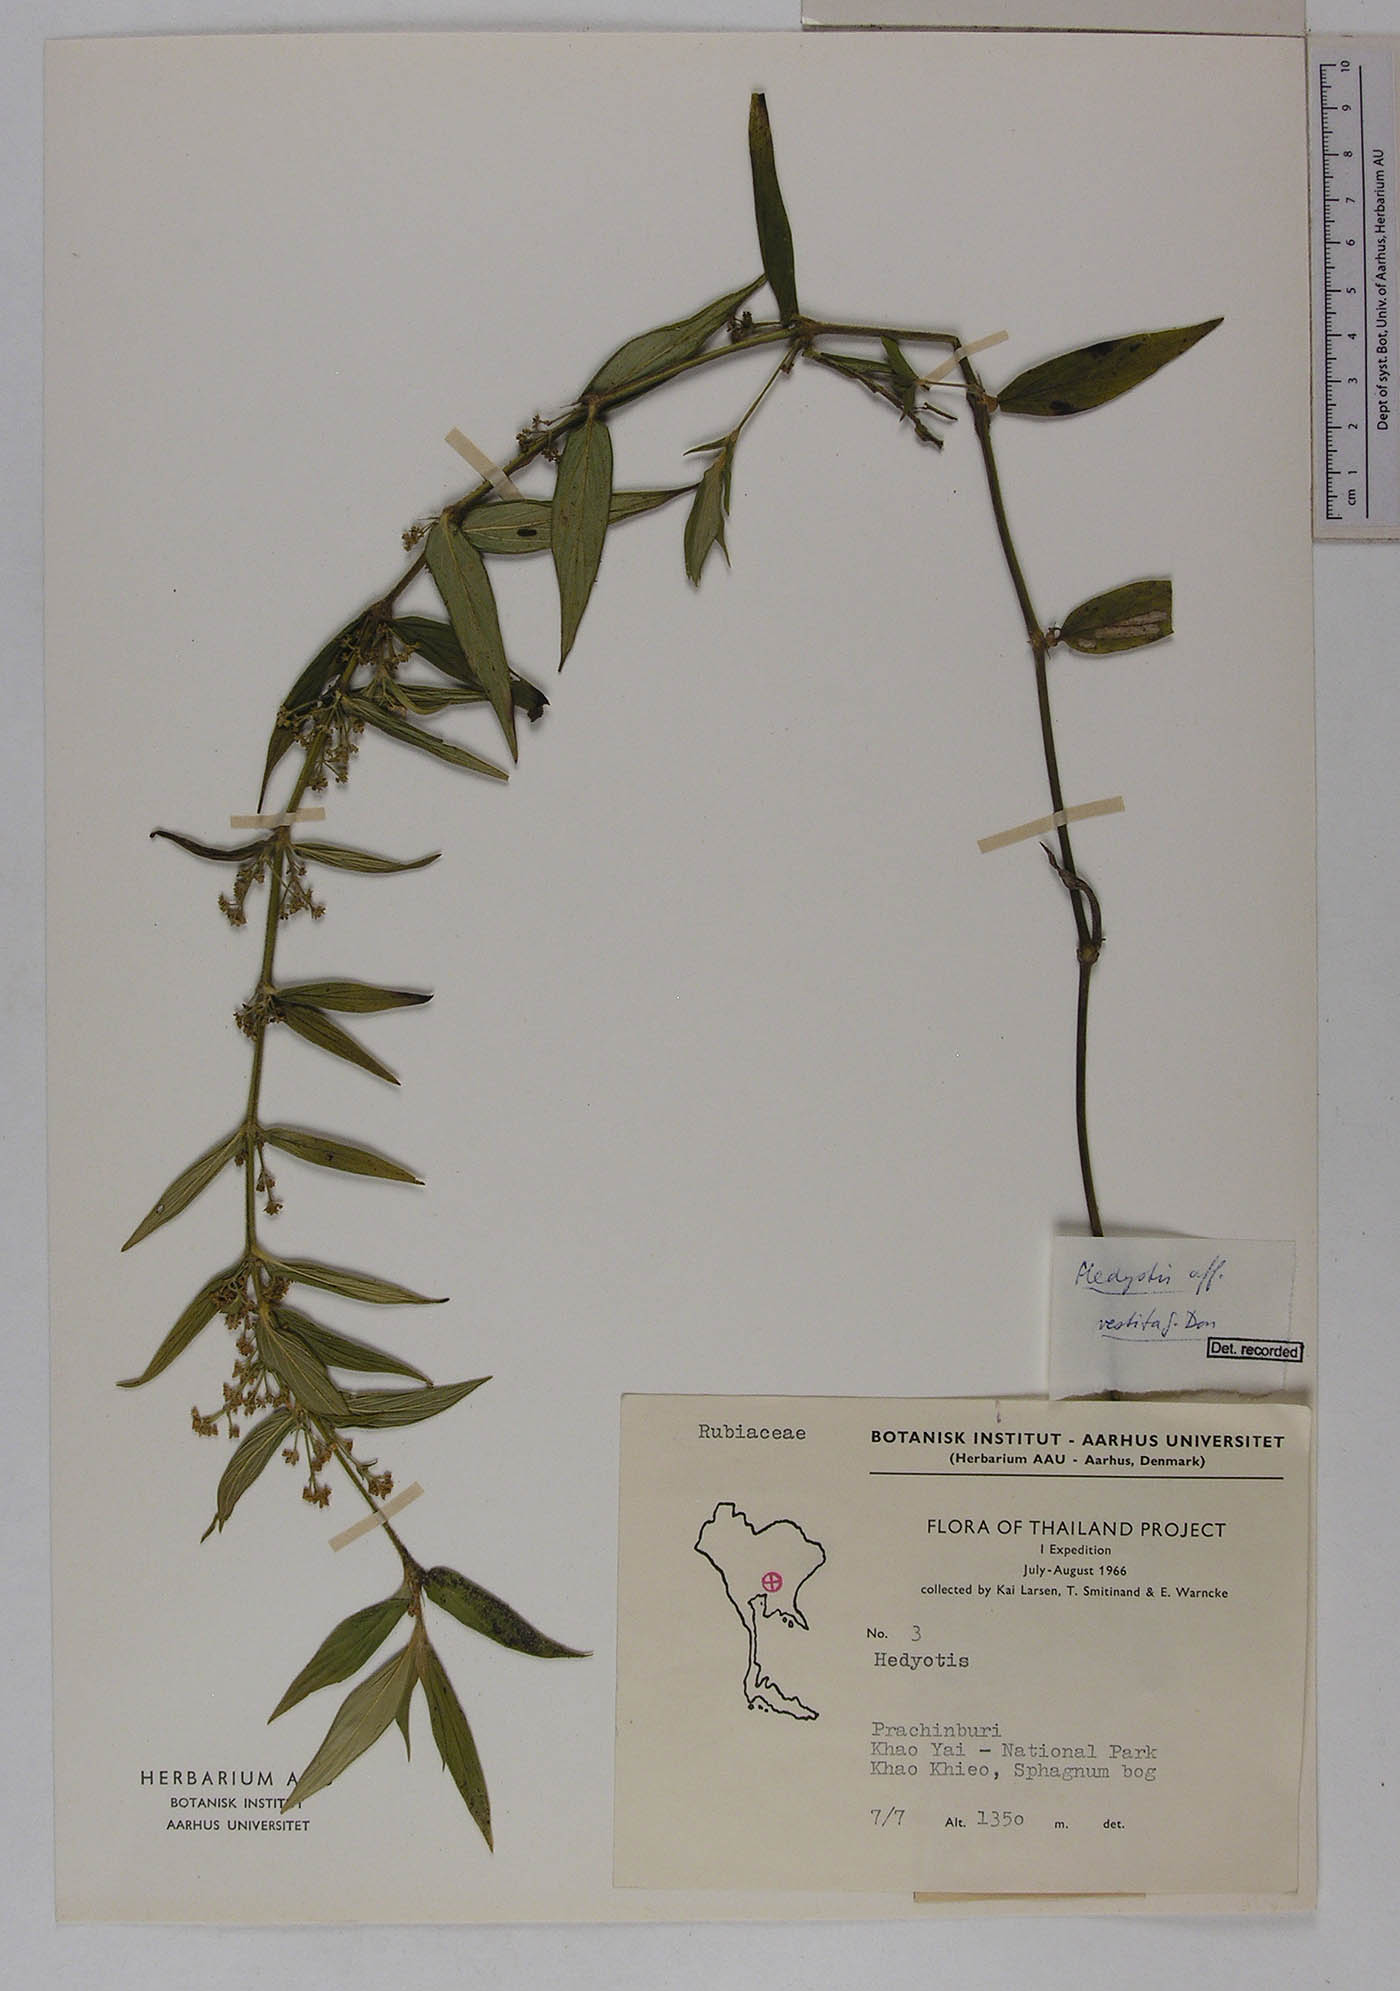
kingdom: Plantae
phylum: Tracheophyta
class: Magnoliopsida
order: Gentianales
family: Rubiaceae
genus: Exallage
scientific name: Exallage cristata
